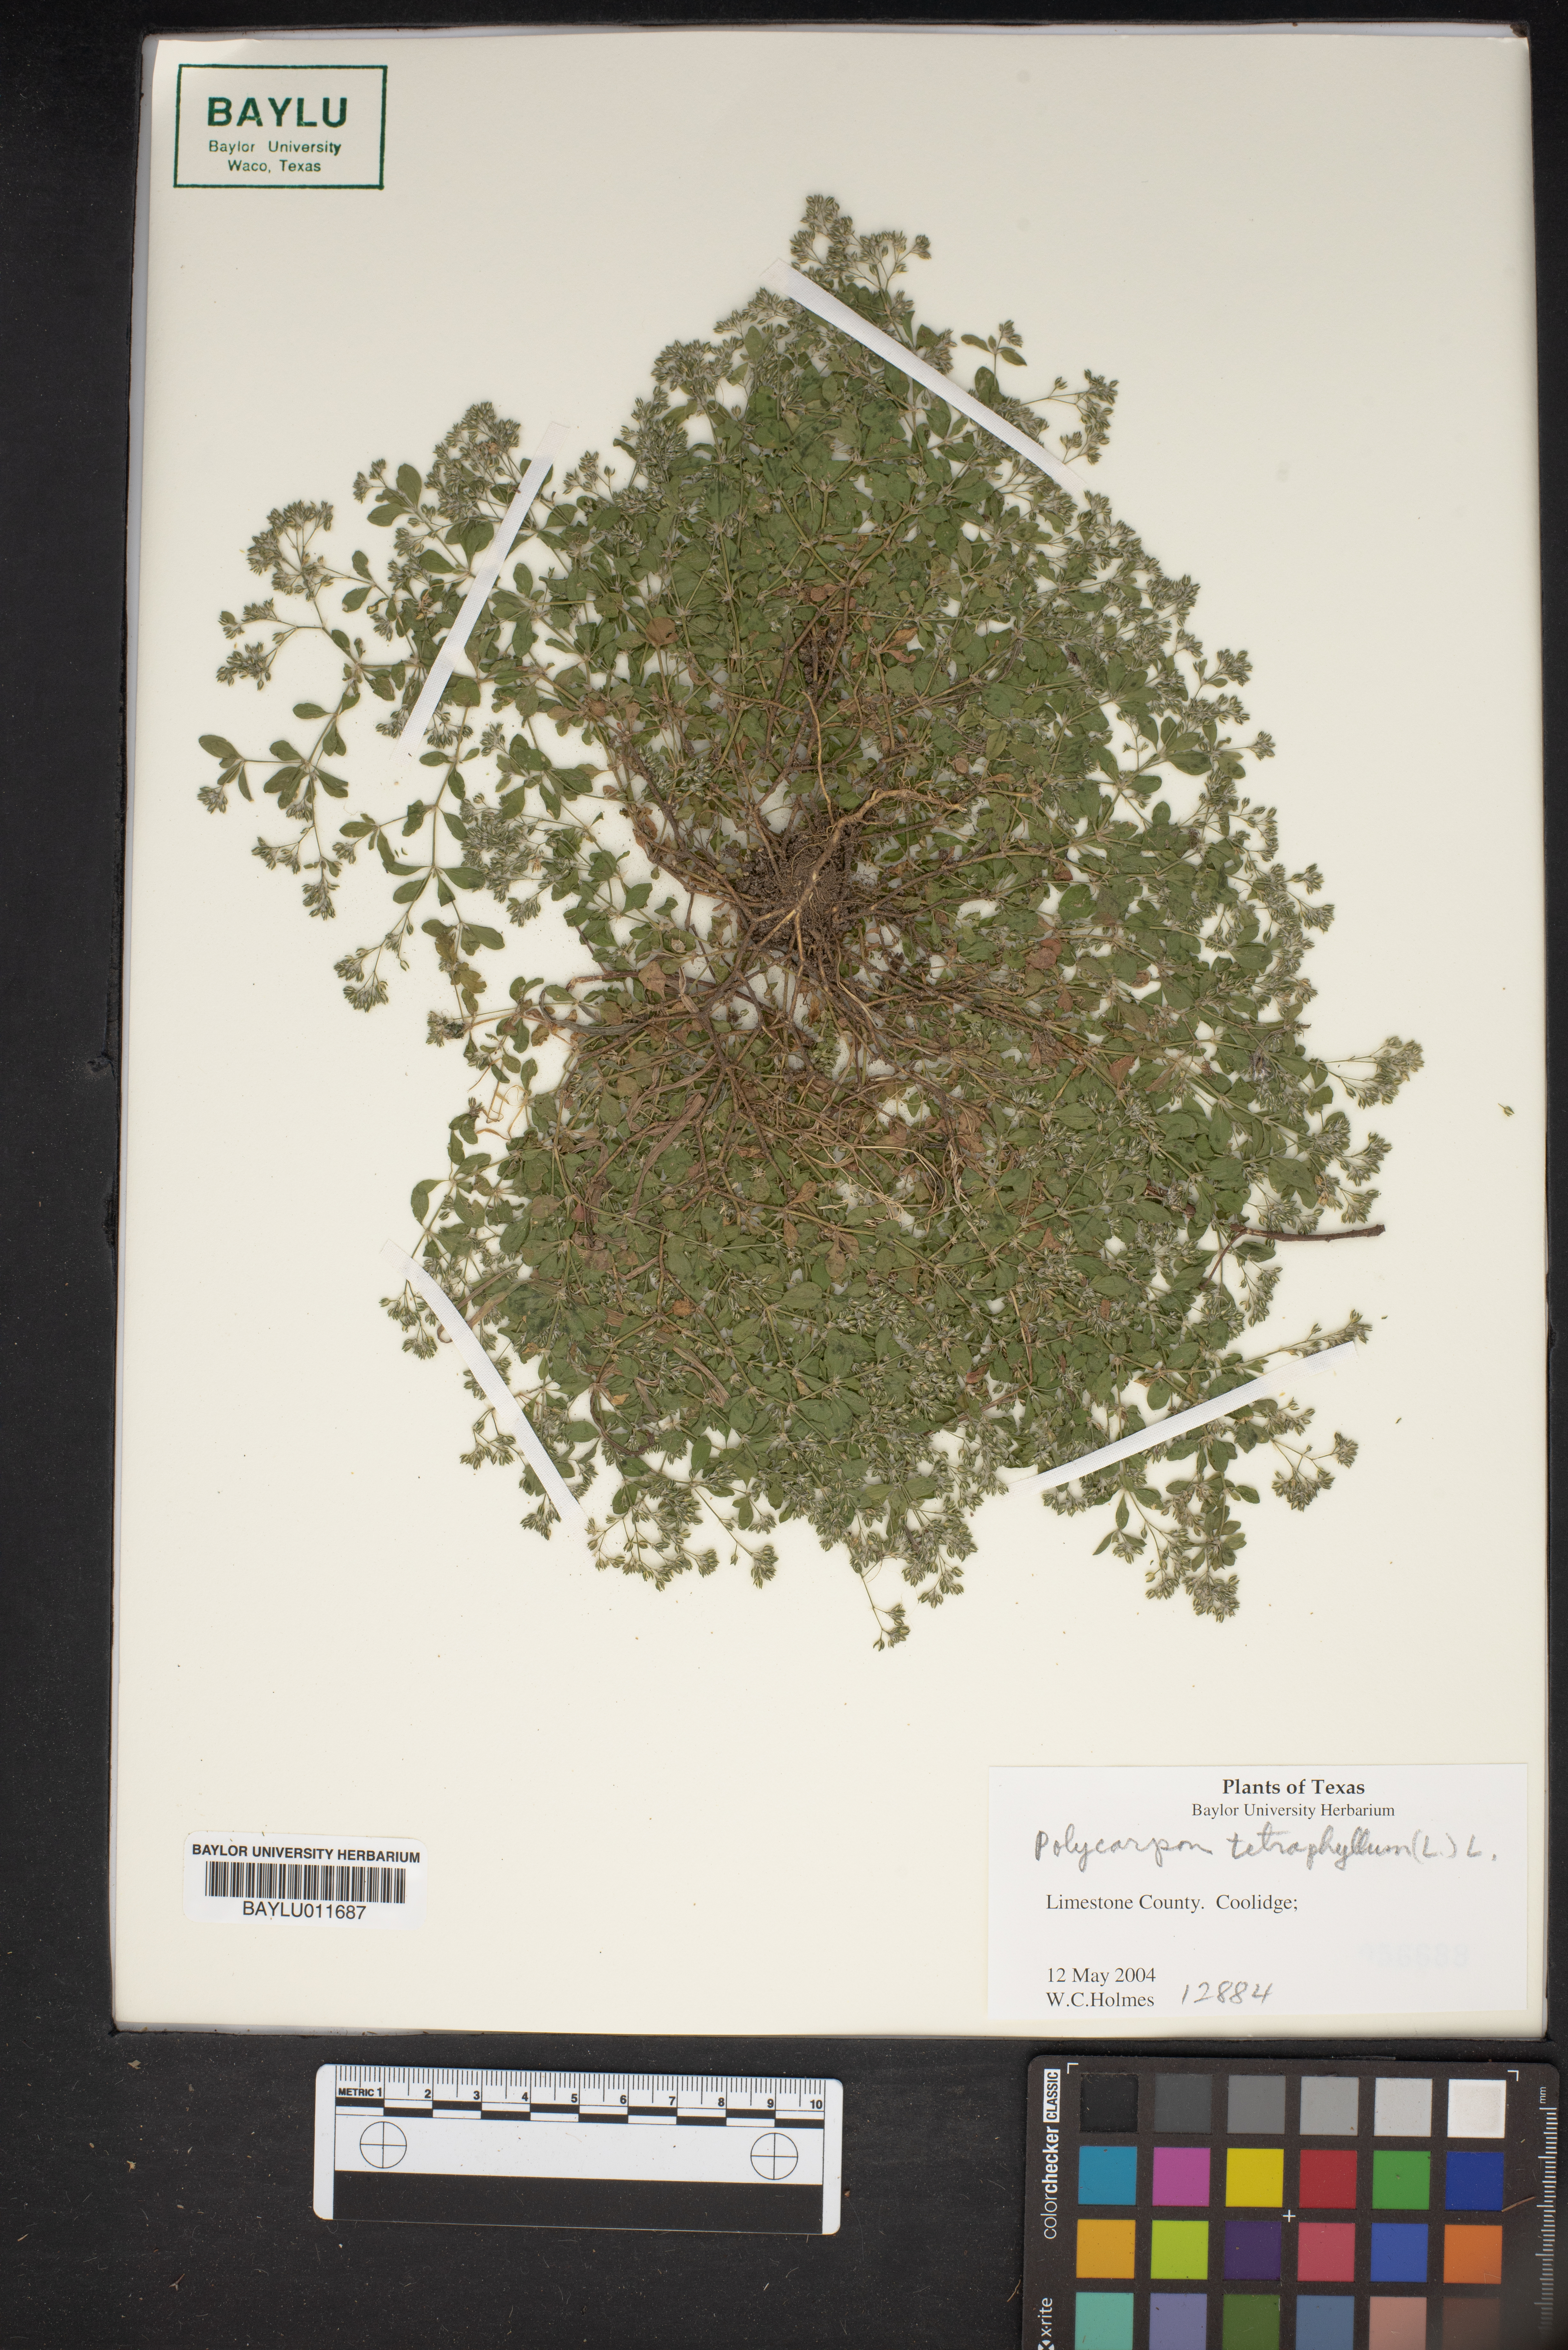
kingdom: Plantae
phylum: Tracheophyta
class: Magnoliopsida
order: Caryophyllales
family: Caryophyllaceae
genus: Polycarpon
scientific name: Polycarpon tetraphyllum
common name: Four-leaved all-seed
